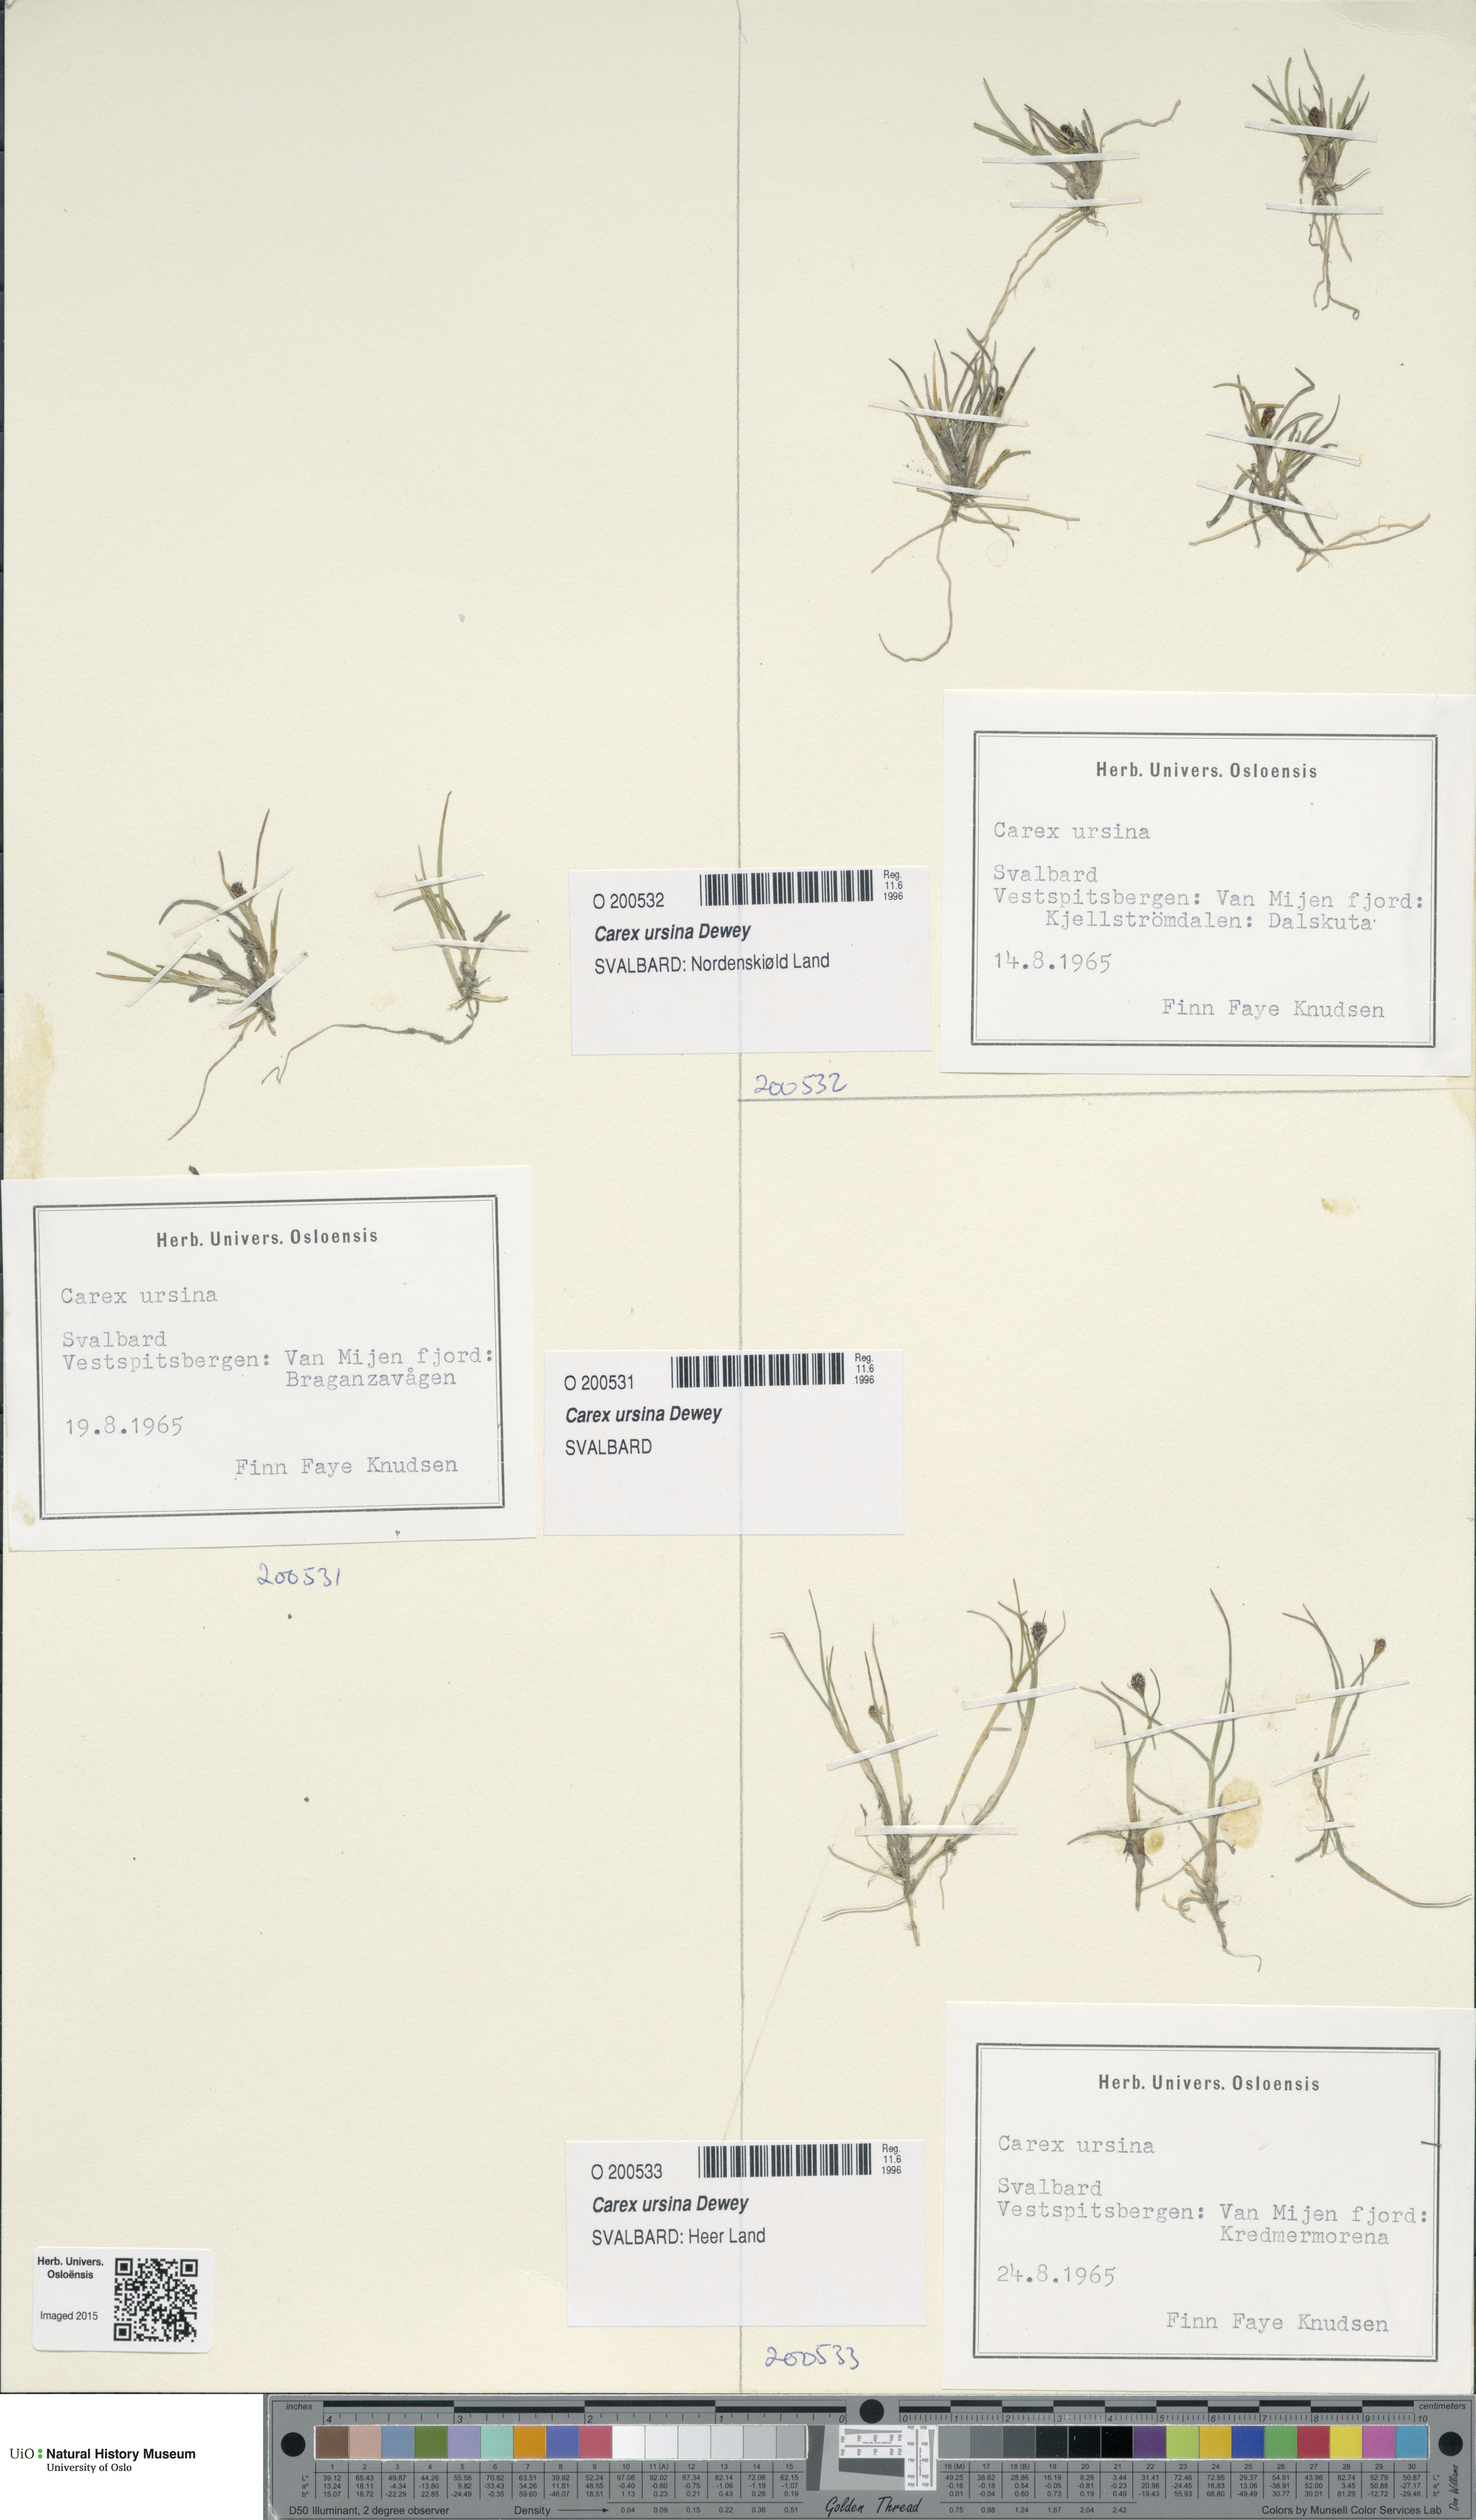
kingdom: Plantae
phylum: Tracheophyta
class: Liliopsida
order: Poales
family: Cyperaceae
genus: Carex
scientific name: Carex ursina
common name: Bear sedge
